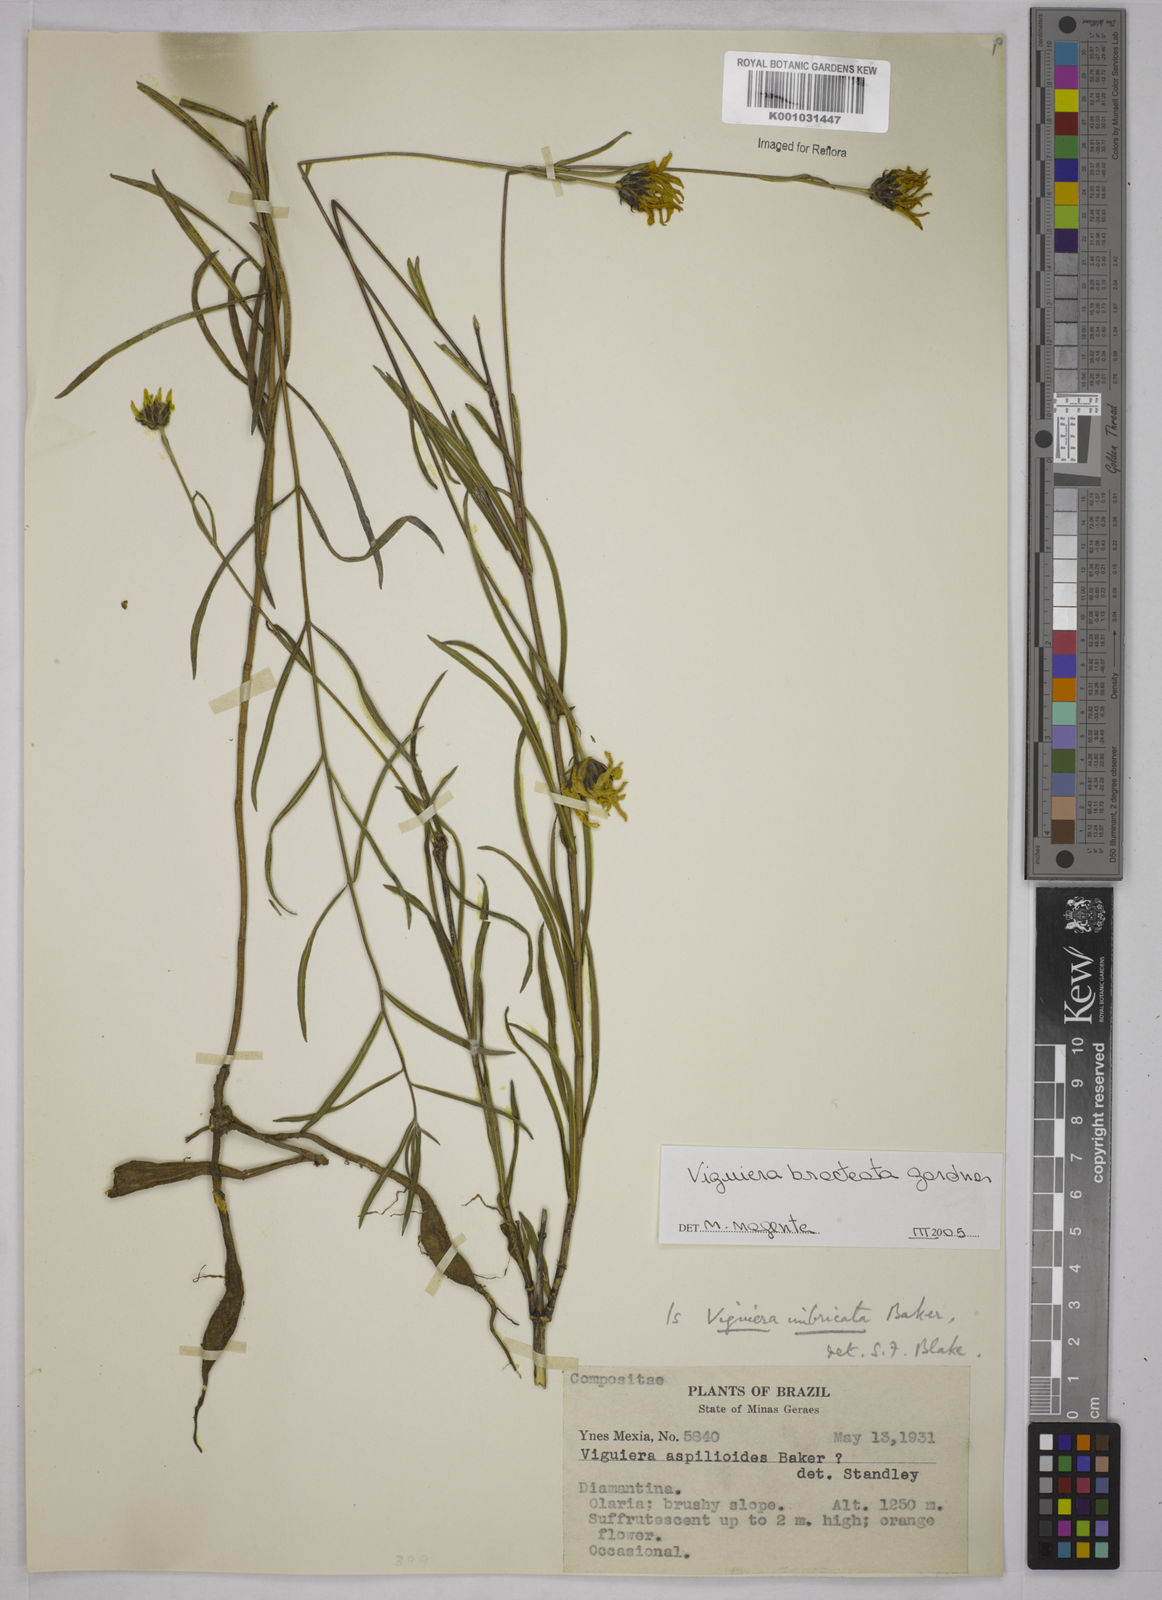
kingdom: Plantae
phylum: Tracheophyta
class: Magnoliopsida
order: Asterales
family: Asteraceae
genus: Aldama
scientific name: Aldama bracteata
